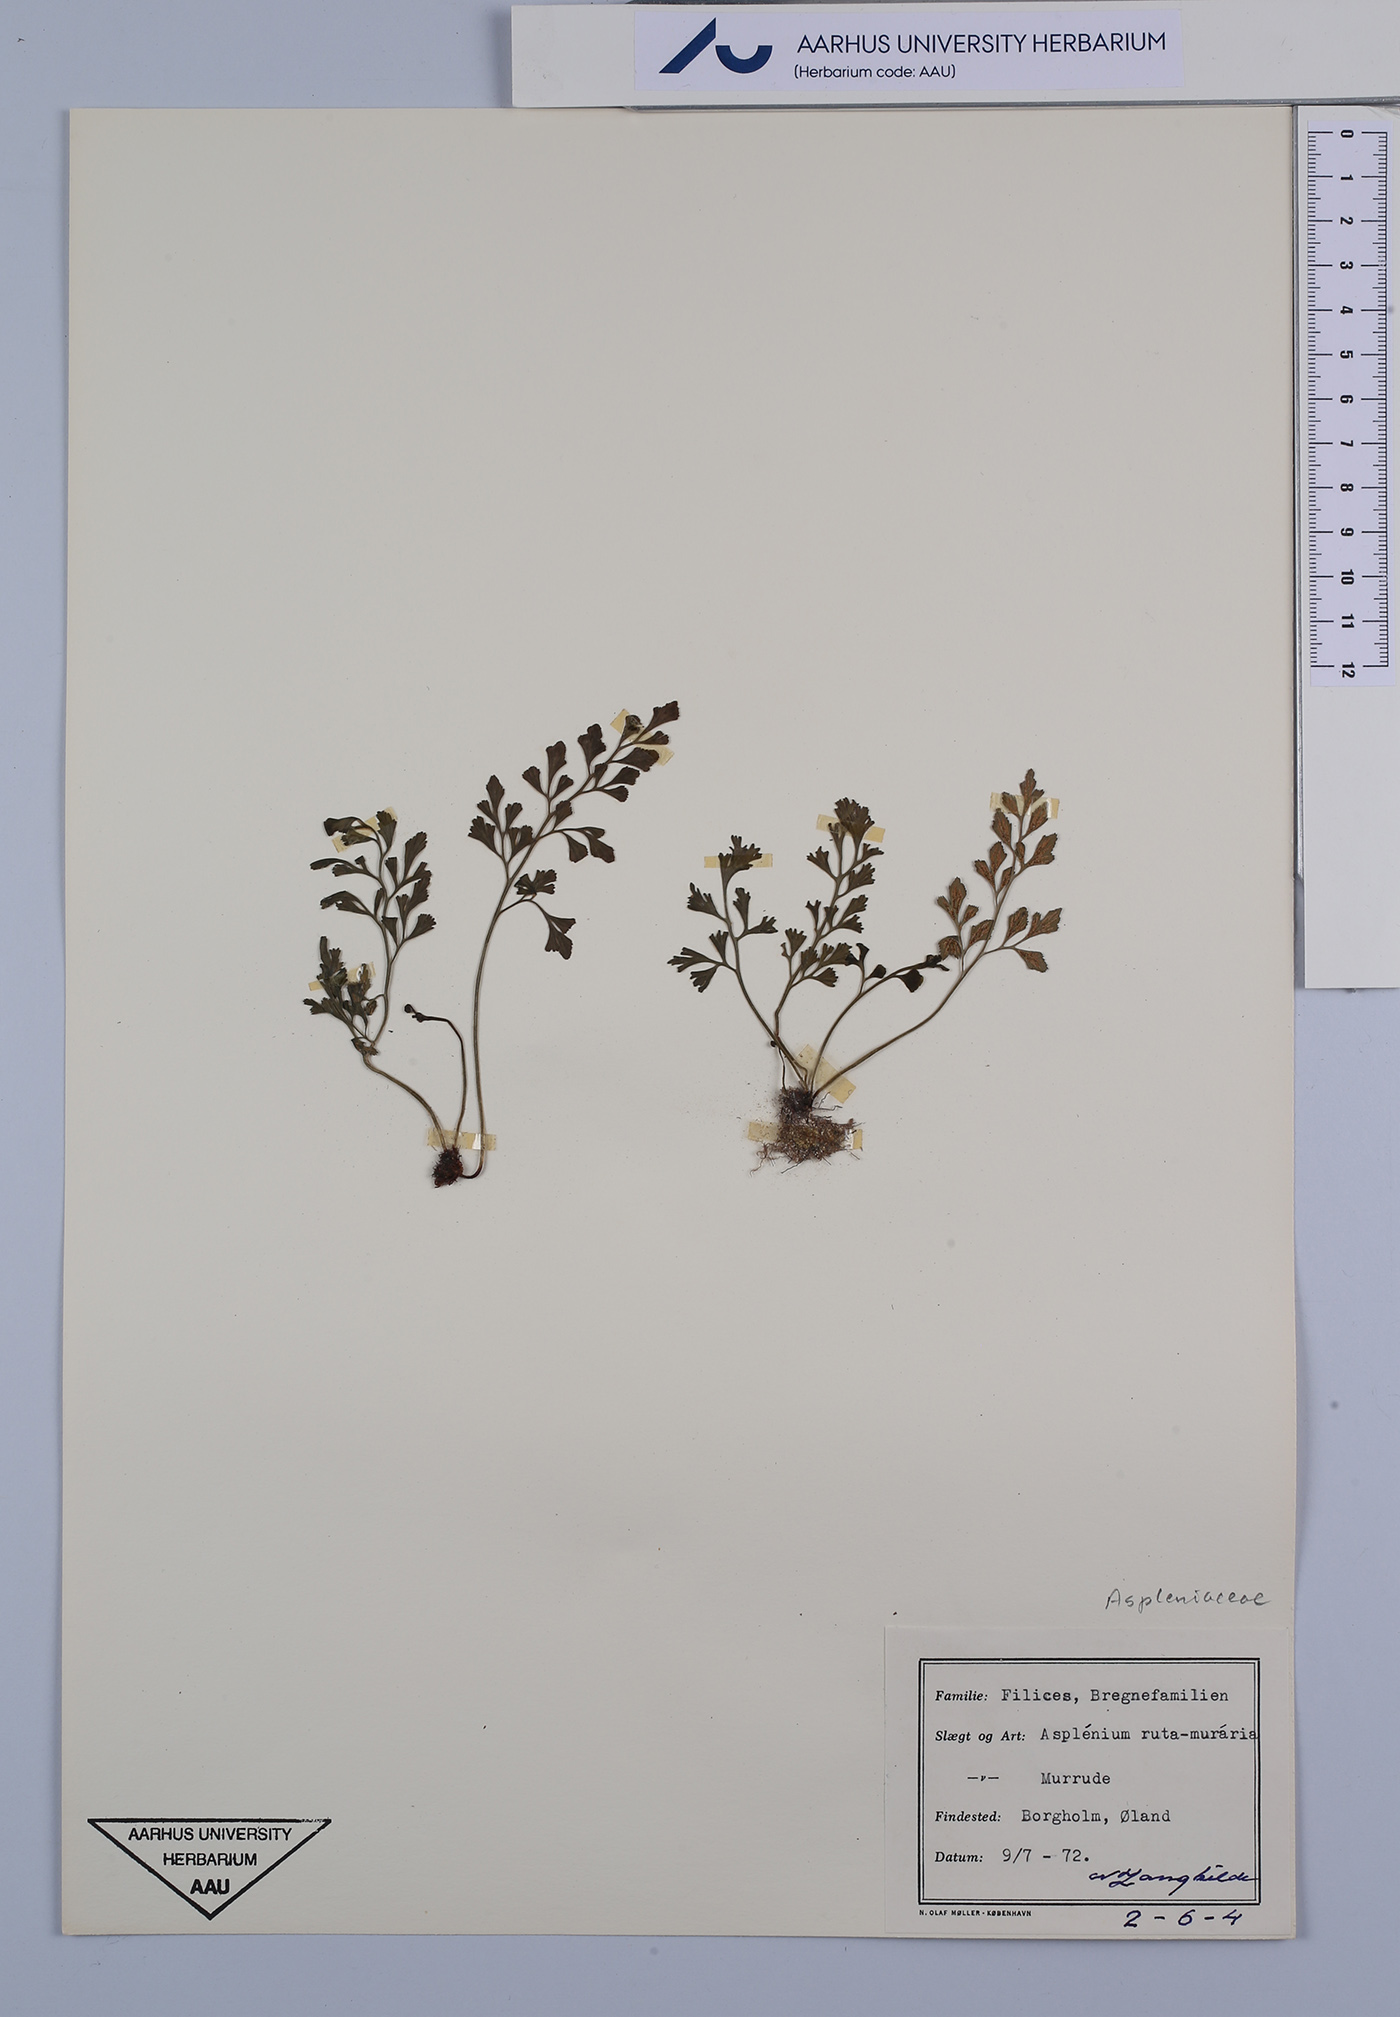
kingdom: Plantae
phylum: Tracheophyta
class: Polypodiopsida
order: Polypodiales
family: Aspleniaceae
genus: Asplenium
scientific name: Asplenium ruta-muraria
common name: Wall-rue
